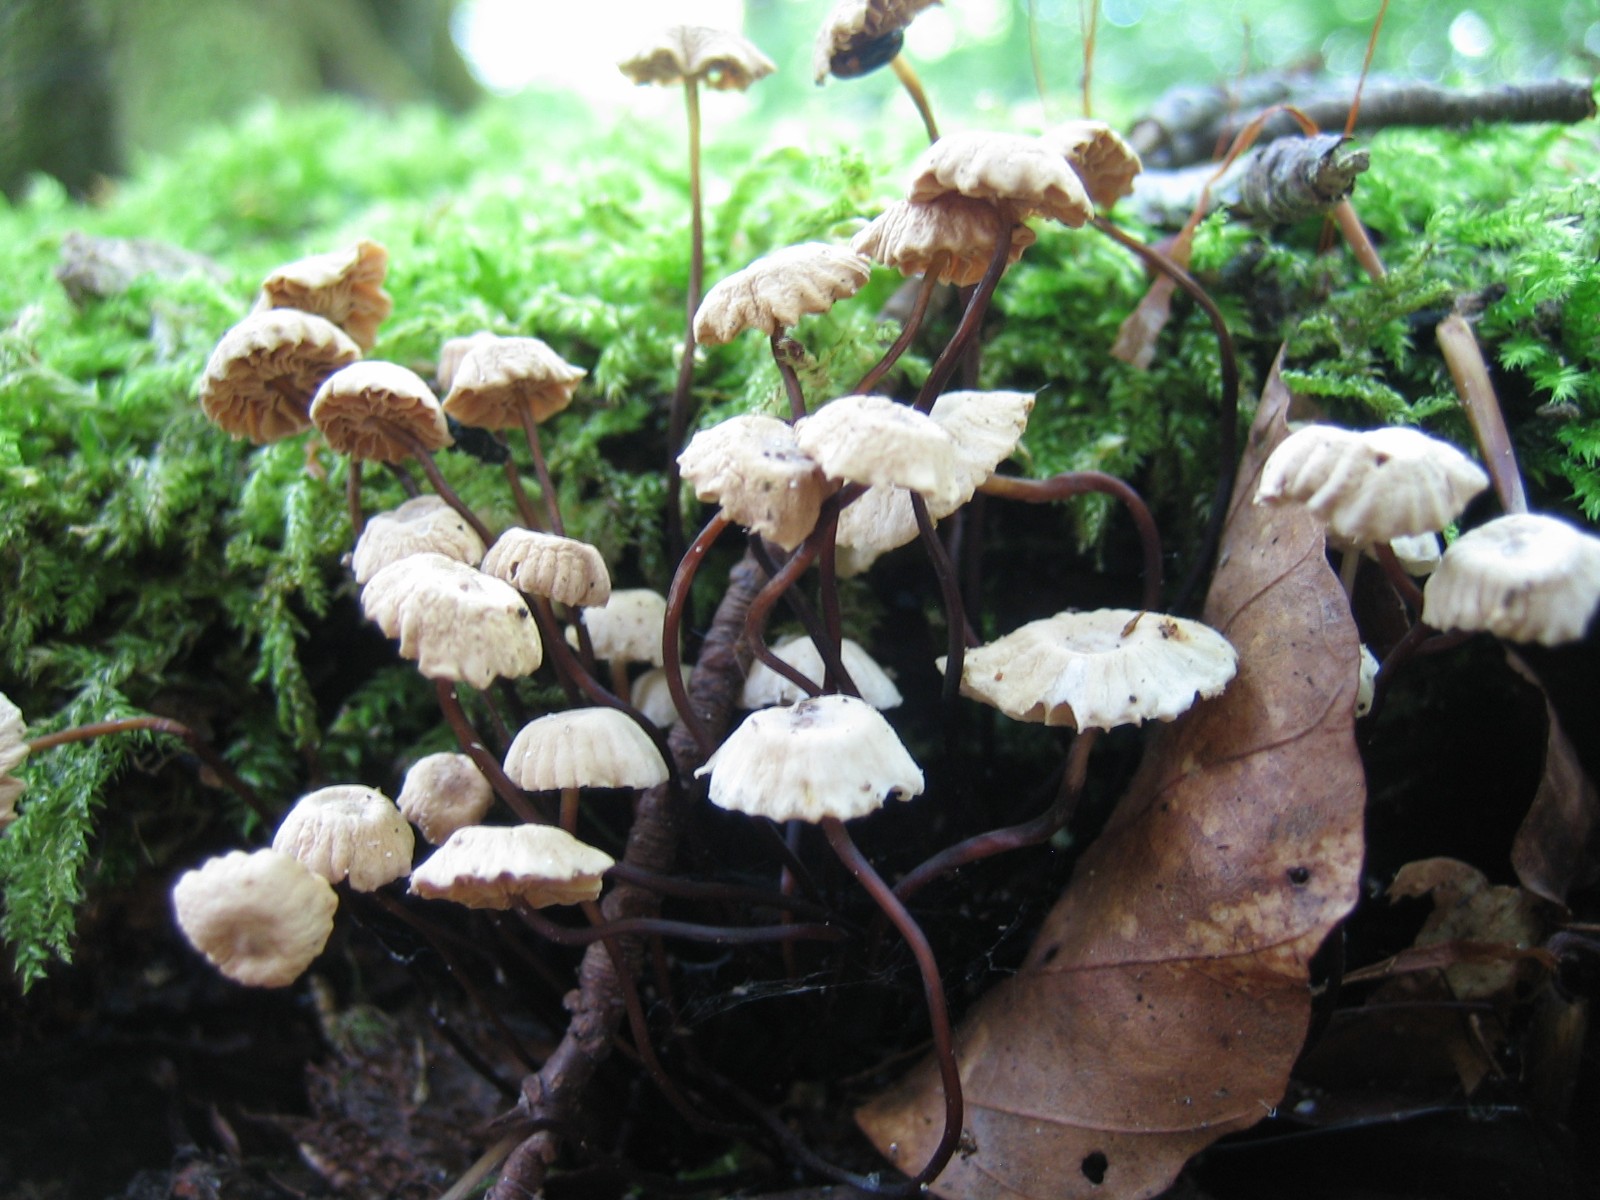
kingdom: Fungi
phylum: Basidiomycota
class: Agaricomycetes
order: Agaricales
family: Marasmiaceae
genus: Marasmius
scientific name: Marasmius rotula
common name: hjul-bruskhat
